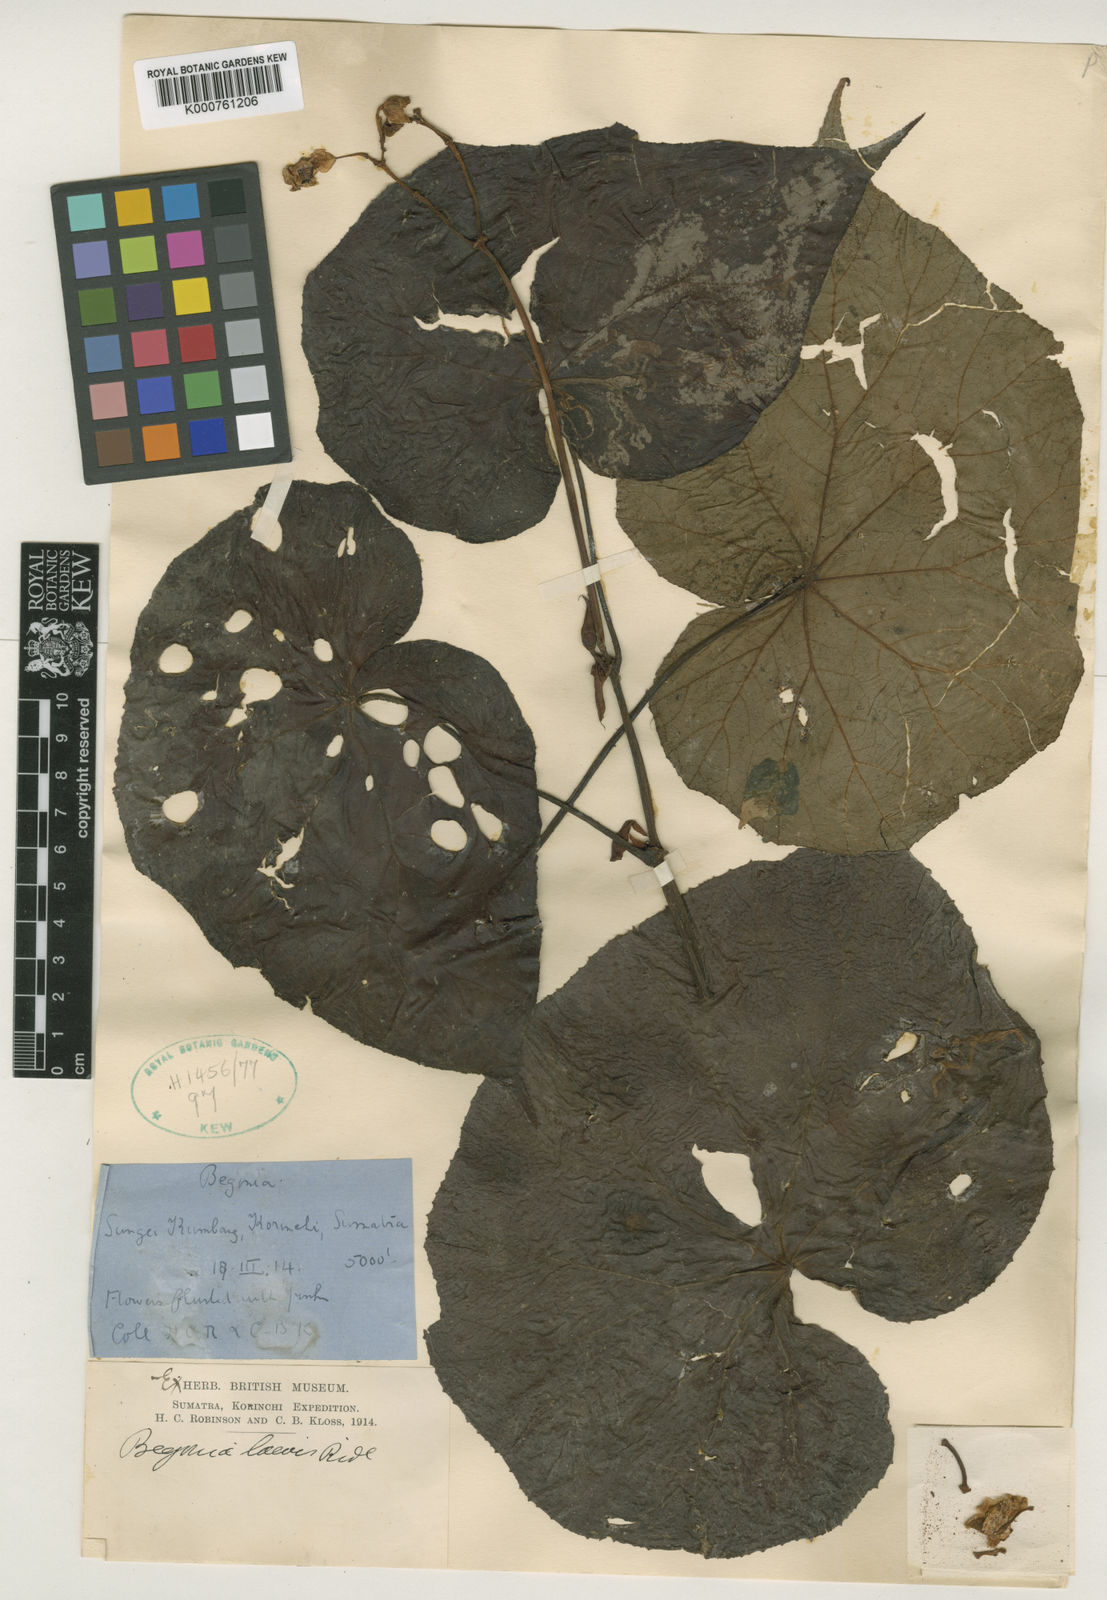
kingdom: Plantae
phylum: Tracheophyta
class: Magnoliopsida
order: Cucurbitales
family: Begoniaceae
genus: Begonia
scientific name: Begonia laevis
